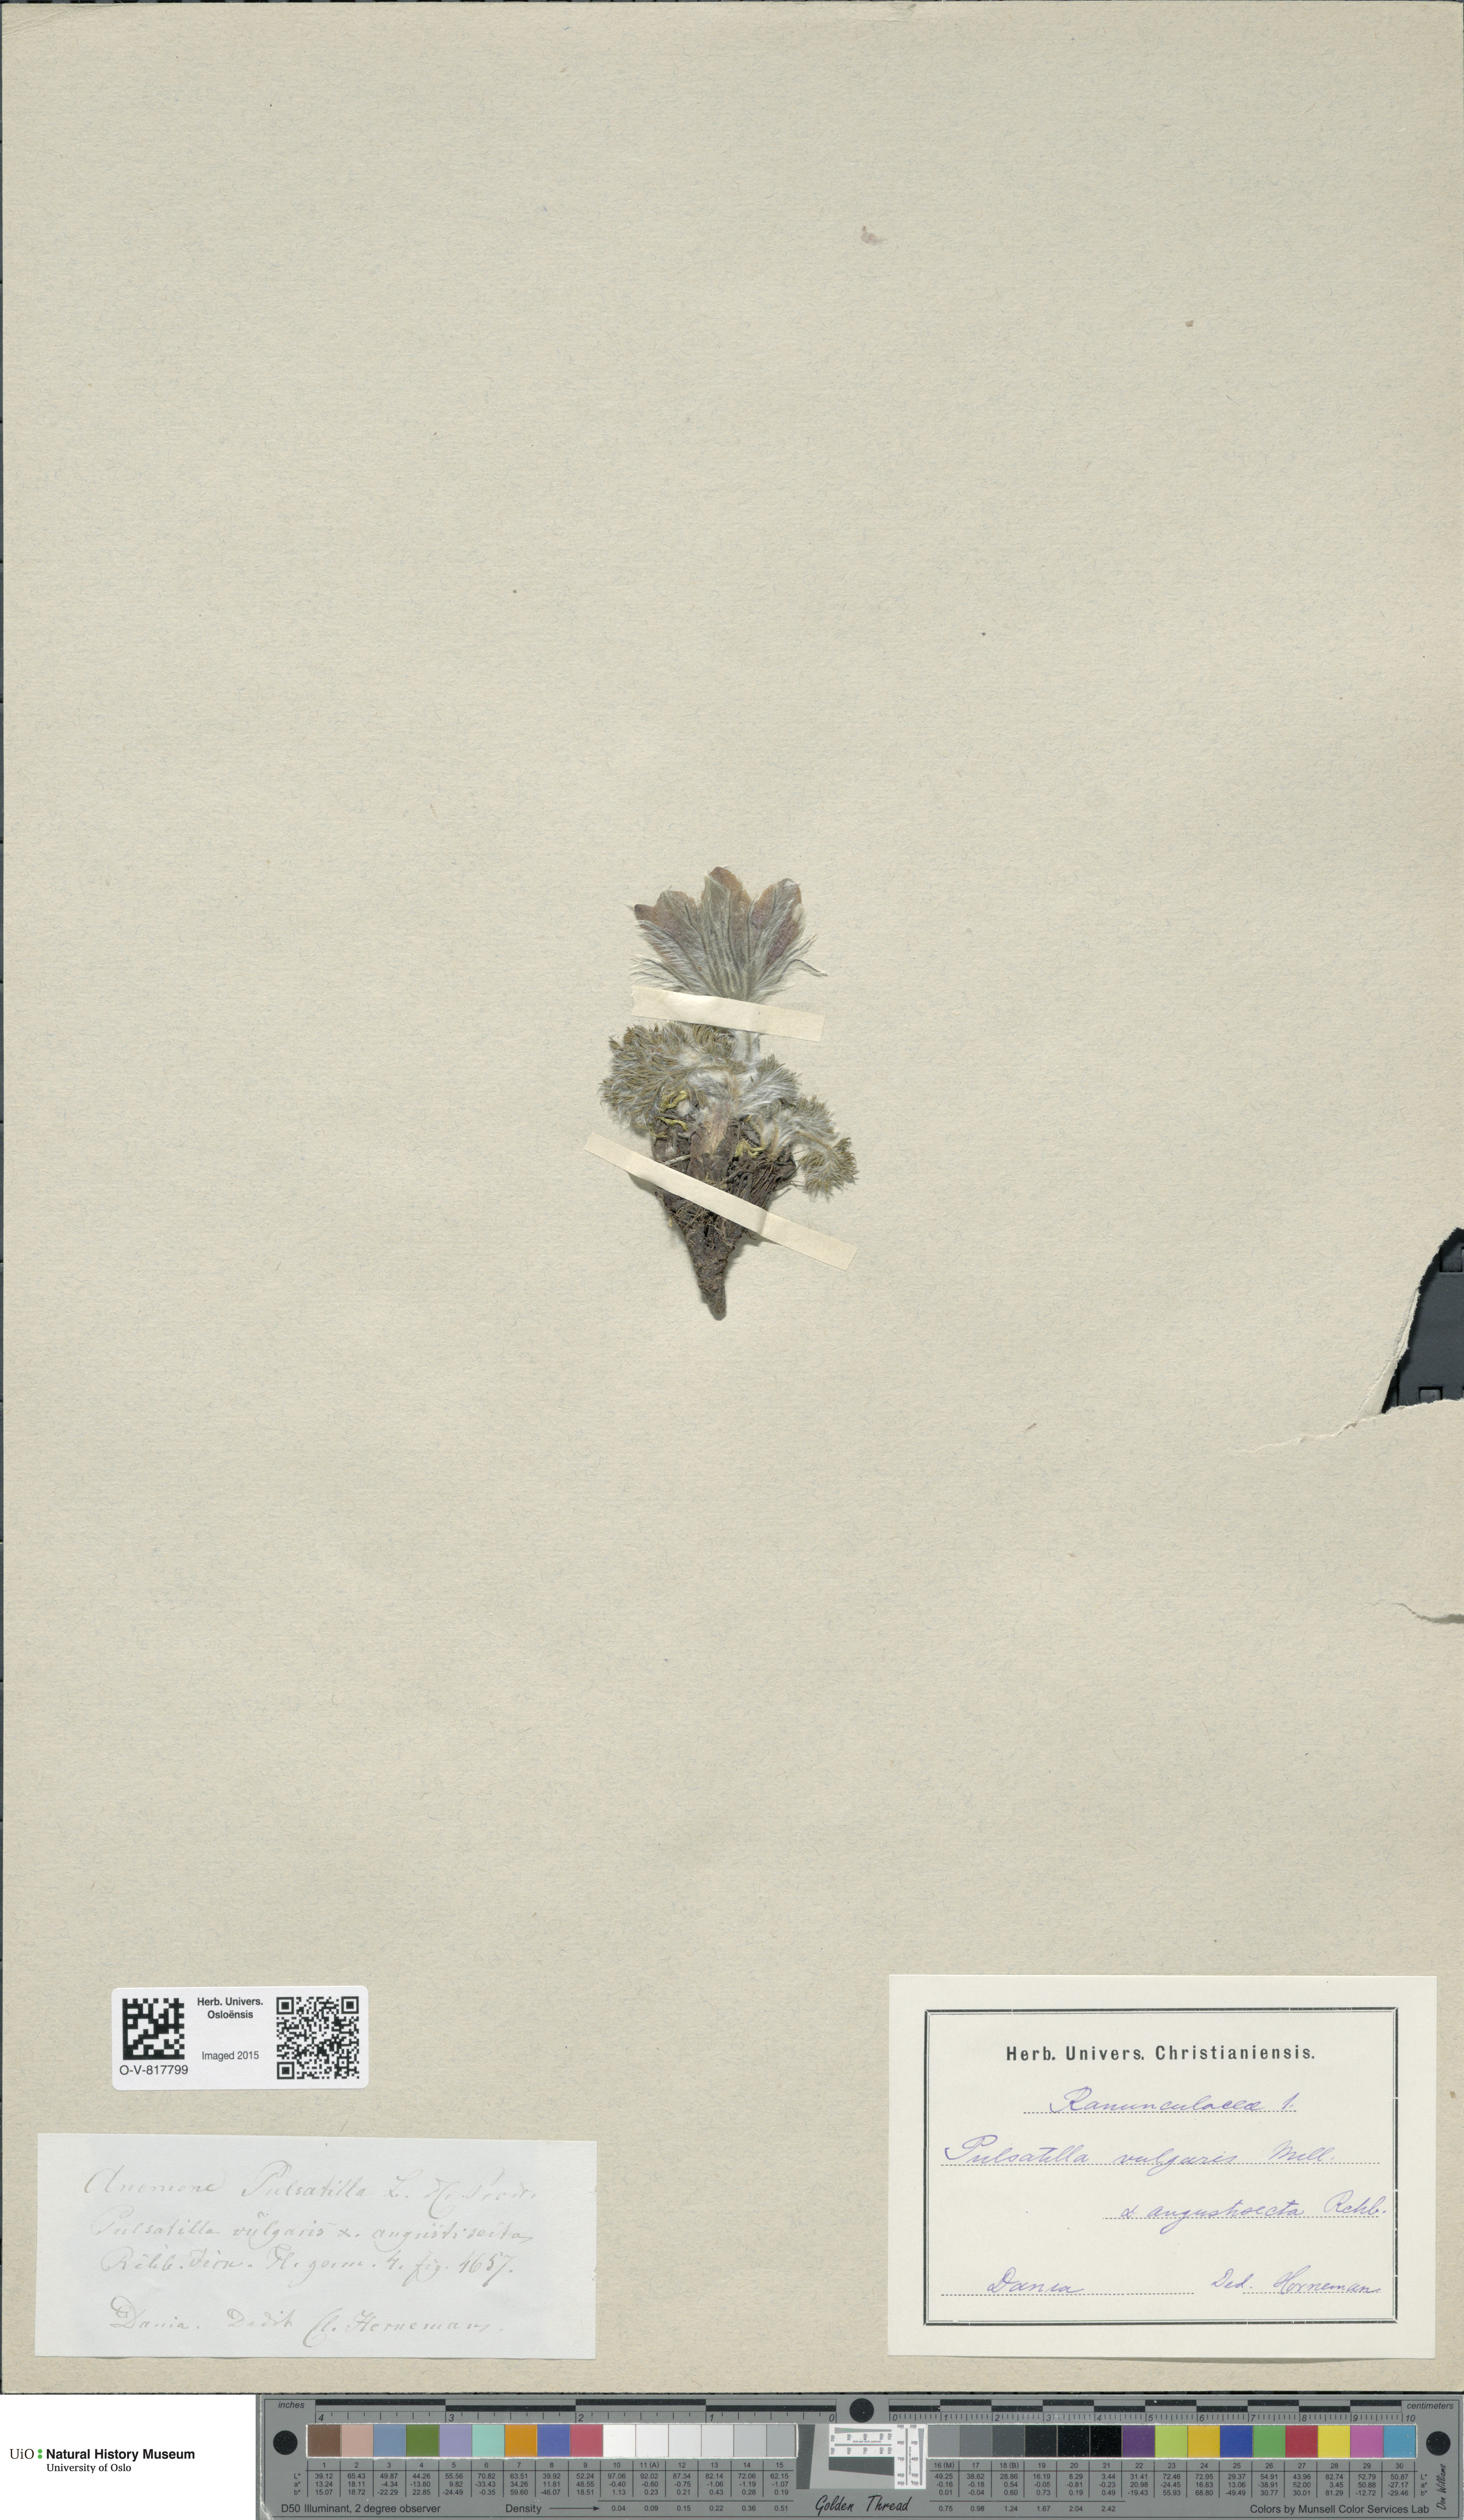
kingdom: Plantae
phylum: Tracheophyta
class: Magnoliopsida
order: Ranunculales
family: Ranunculaceae
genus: Pulsatilla
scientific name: Pulsatilla vulgaris
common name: Pasqueflower
